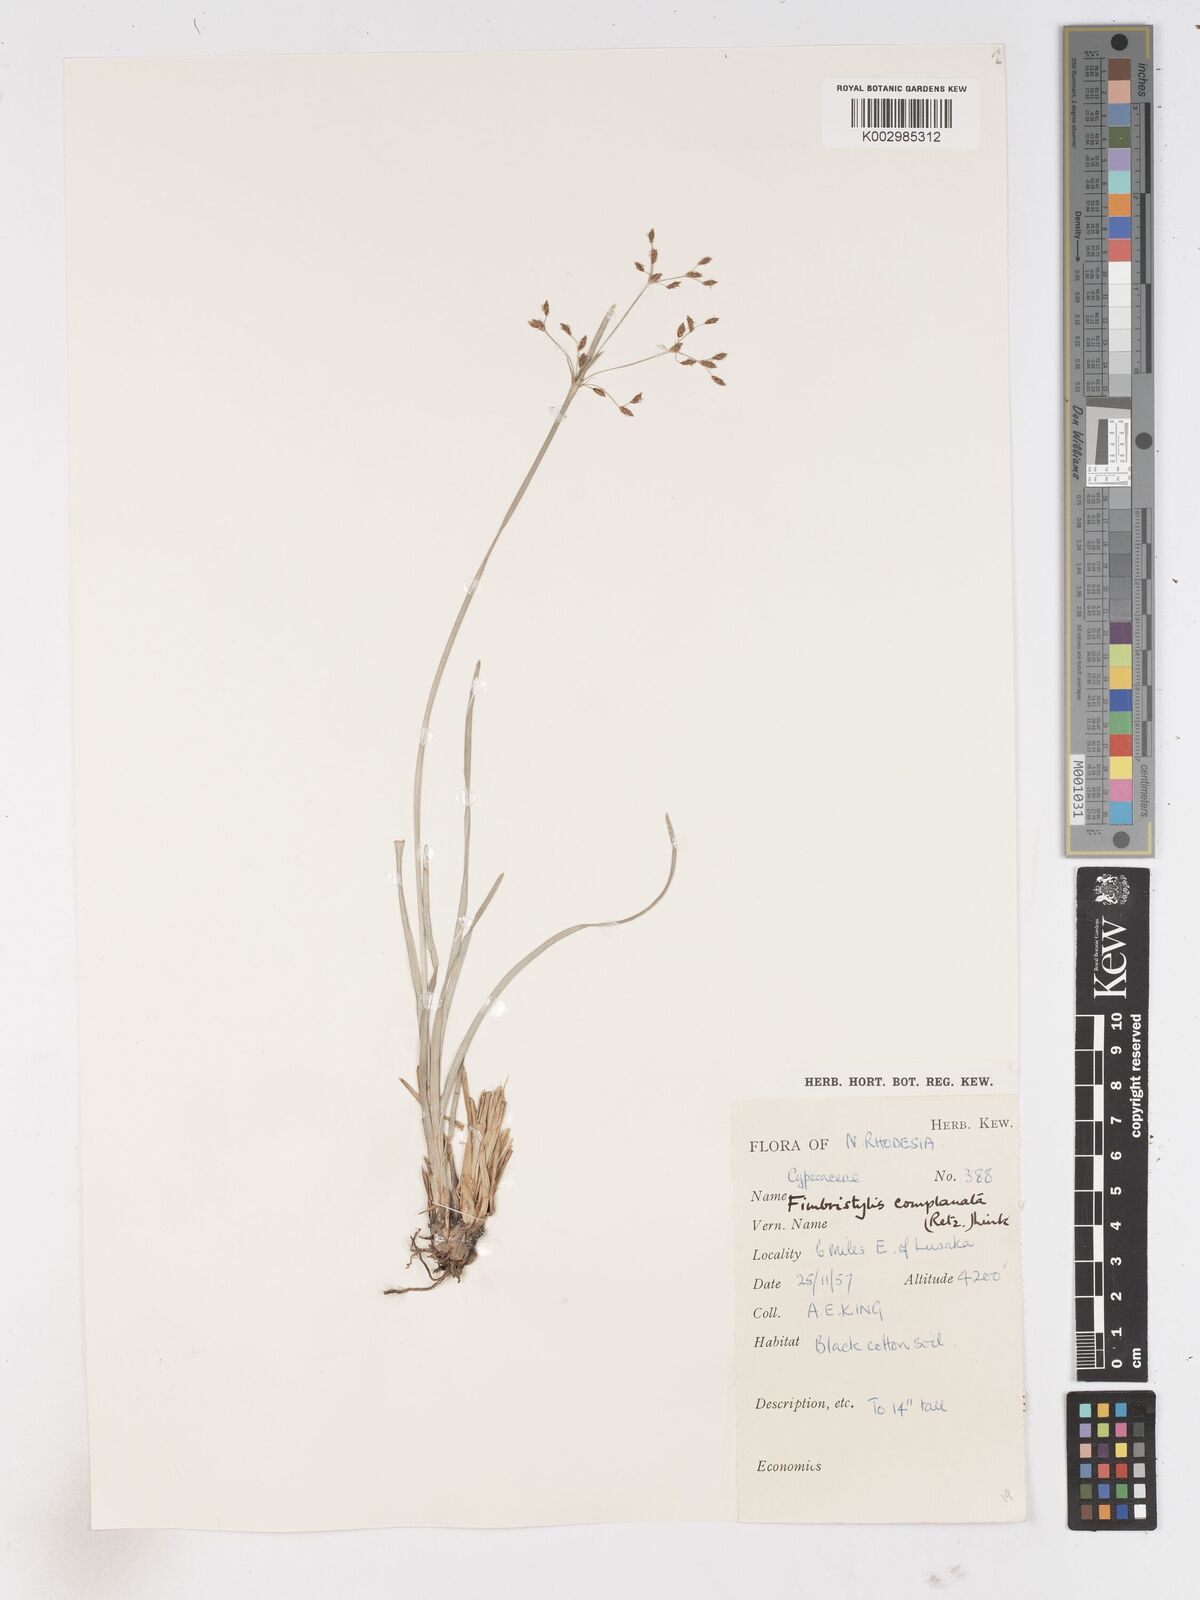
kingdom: Plantae
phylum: Tracheophyta
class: Liliopsida
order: Poales
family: Cyperaceae
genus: Fimbristylis
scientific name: Fimbristylis complanata
